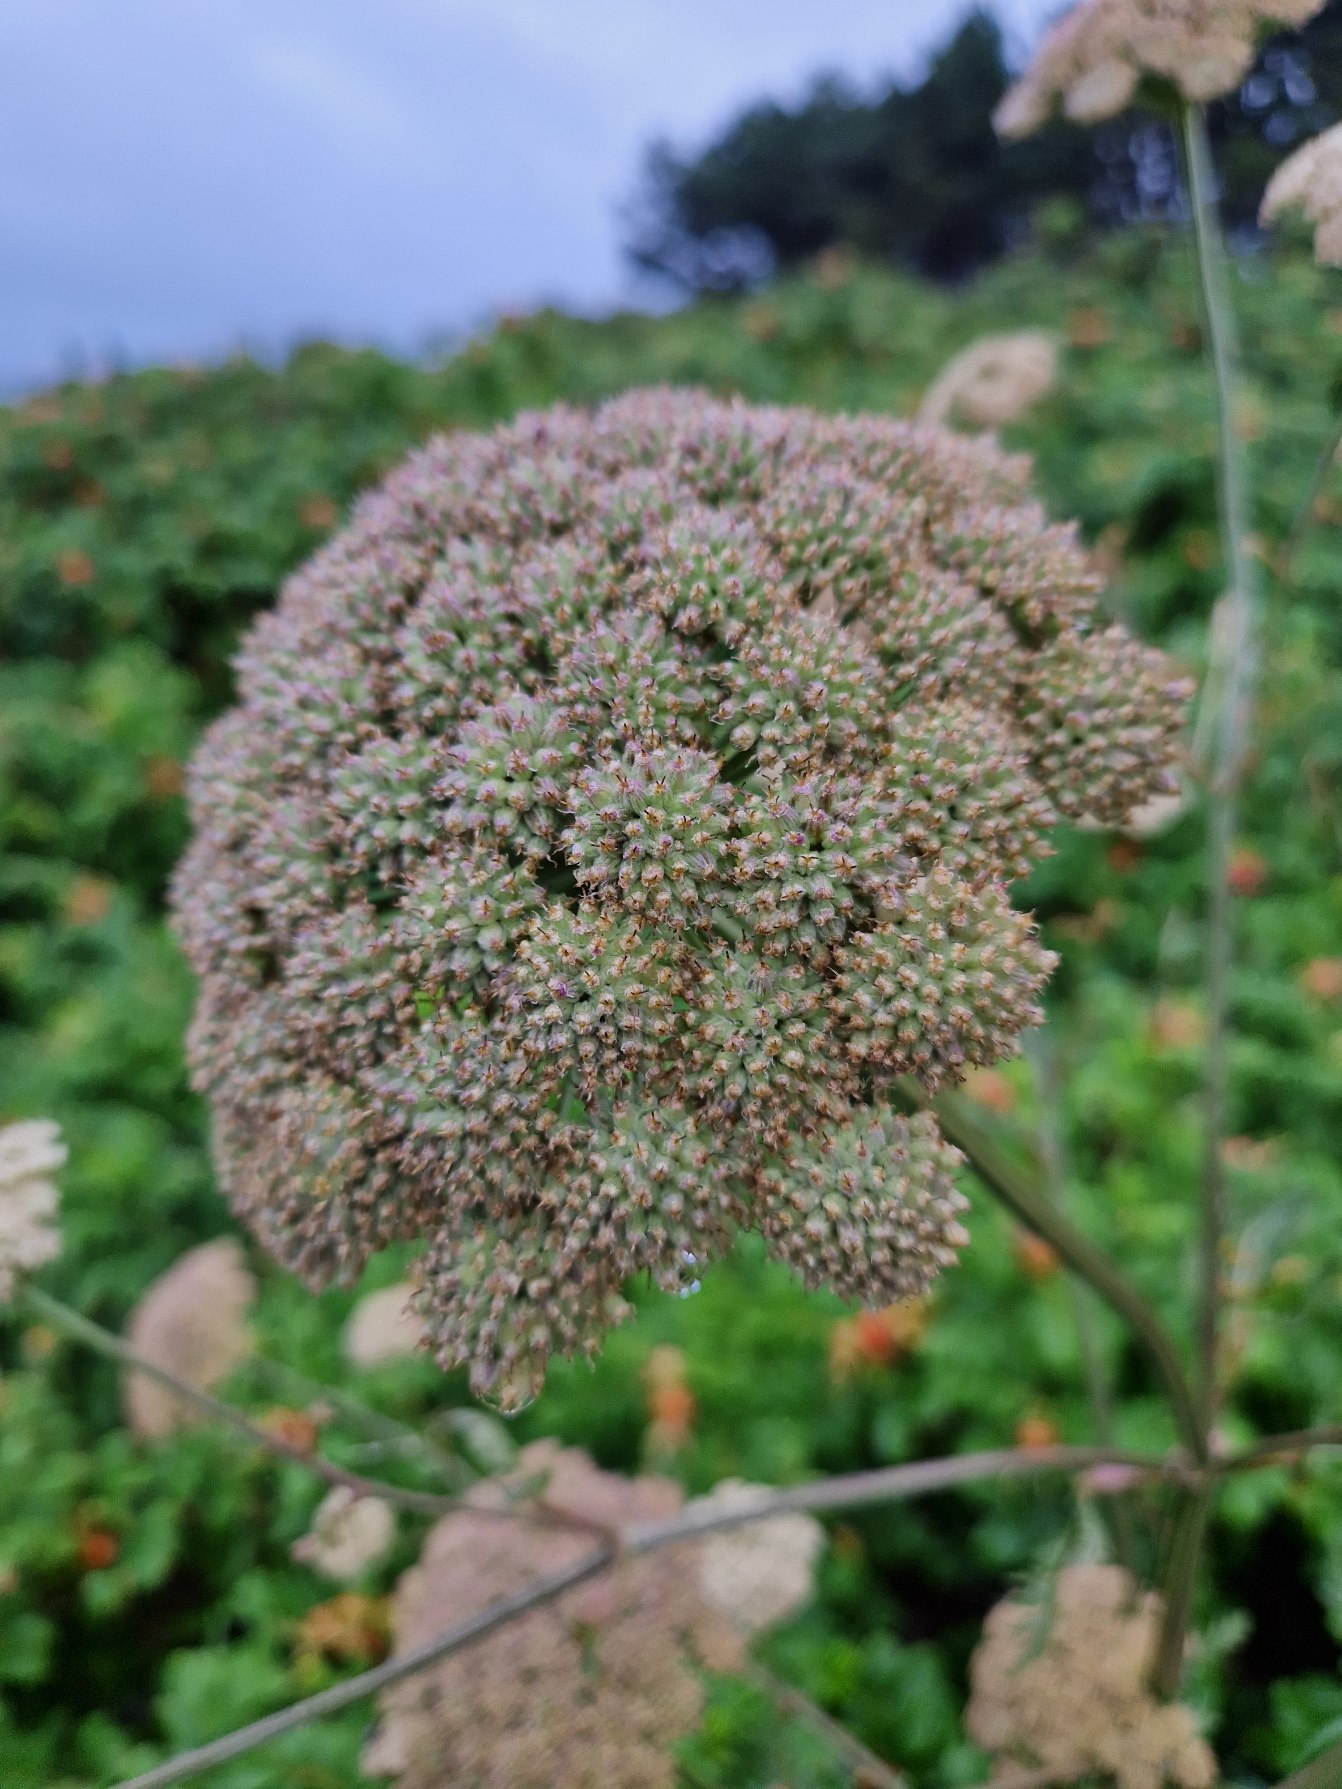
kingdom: Plantae
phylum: Tracheophyta
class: Magnoliopsida
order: Apiales
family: Apiaceae
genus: Seseli
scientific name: Seseli libanotis
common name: Hjorterod
